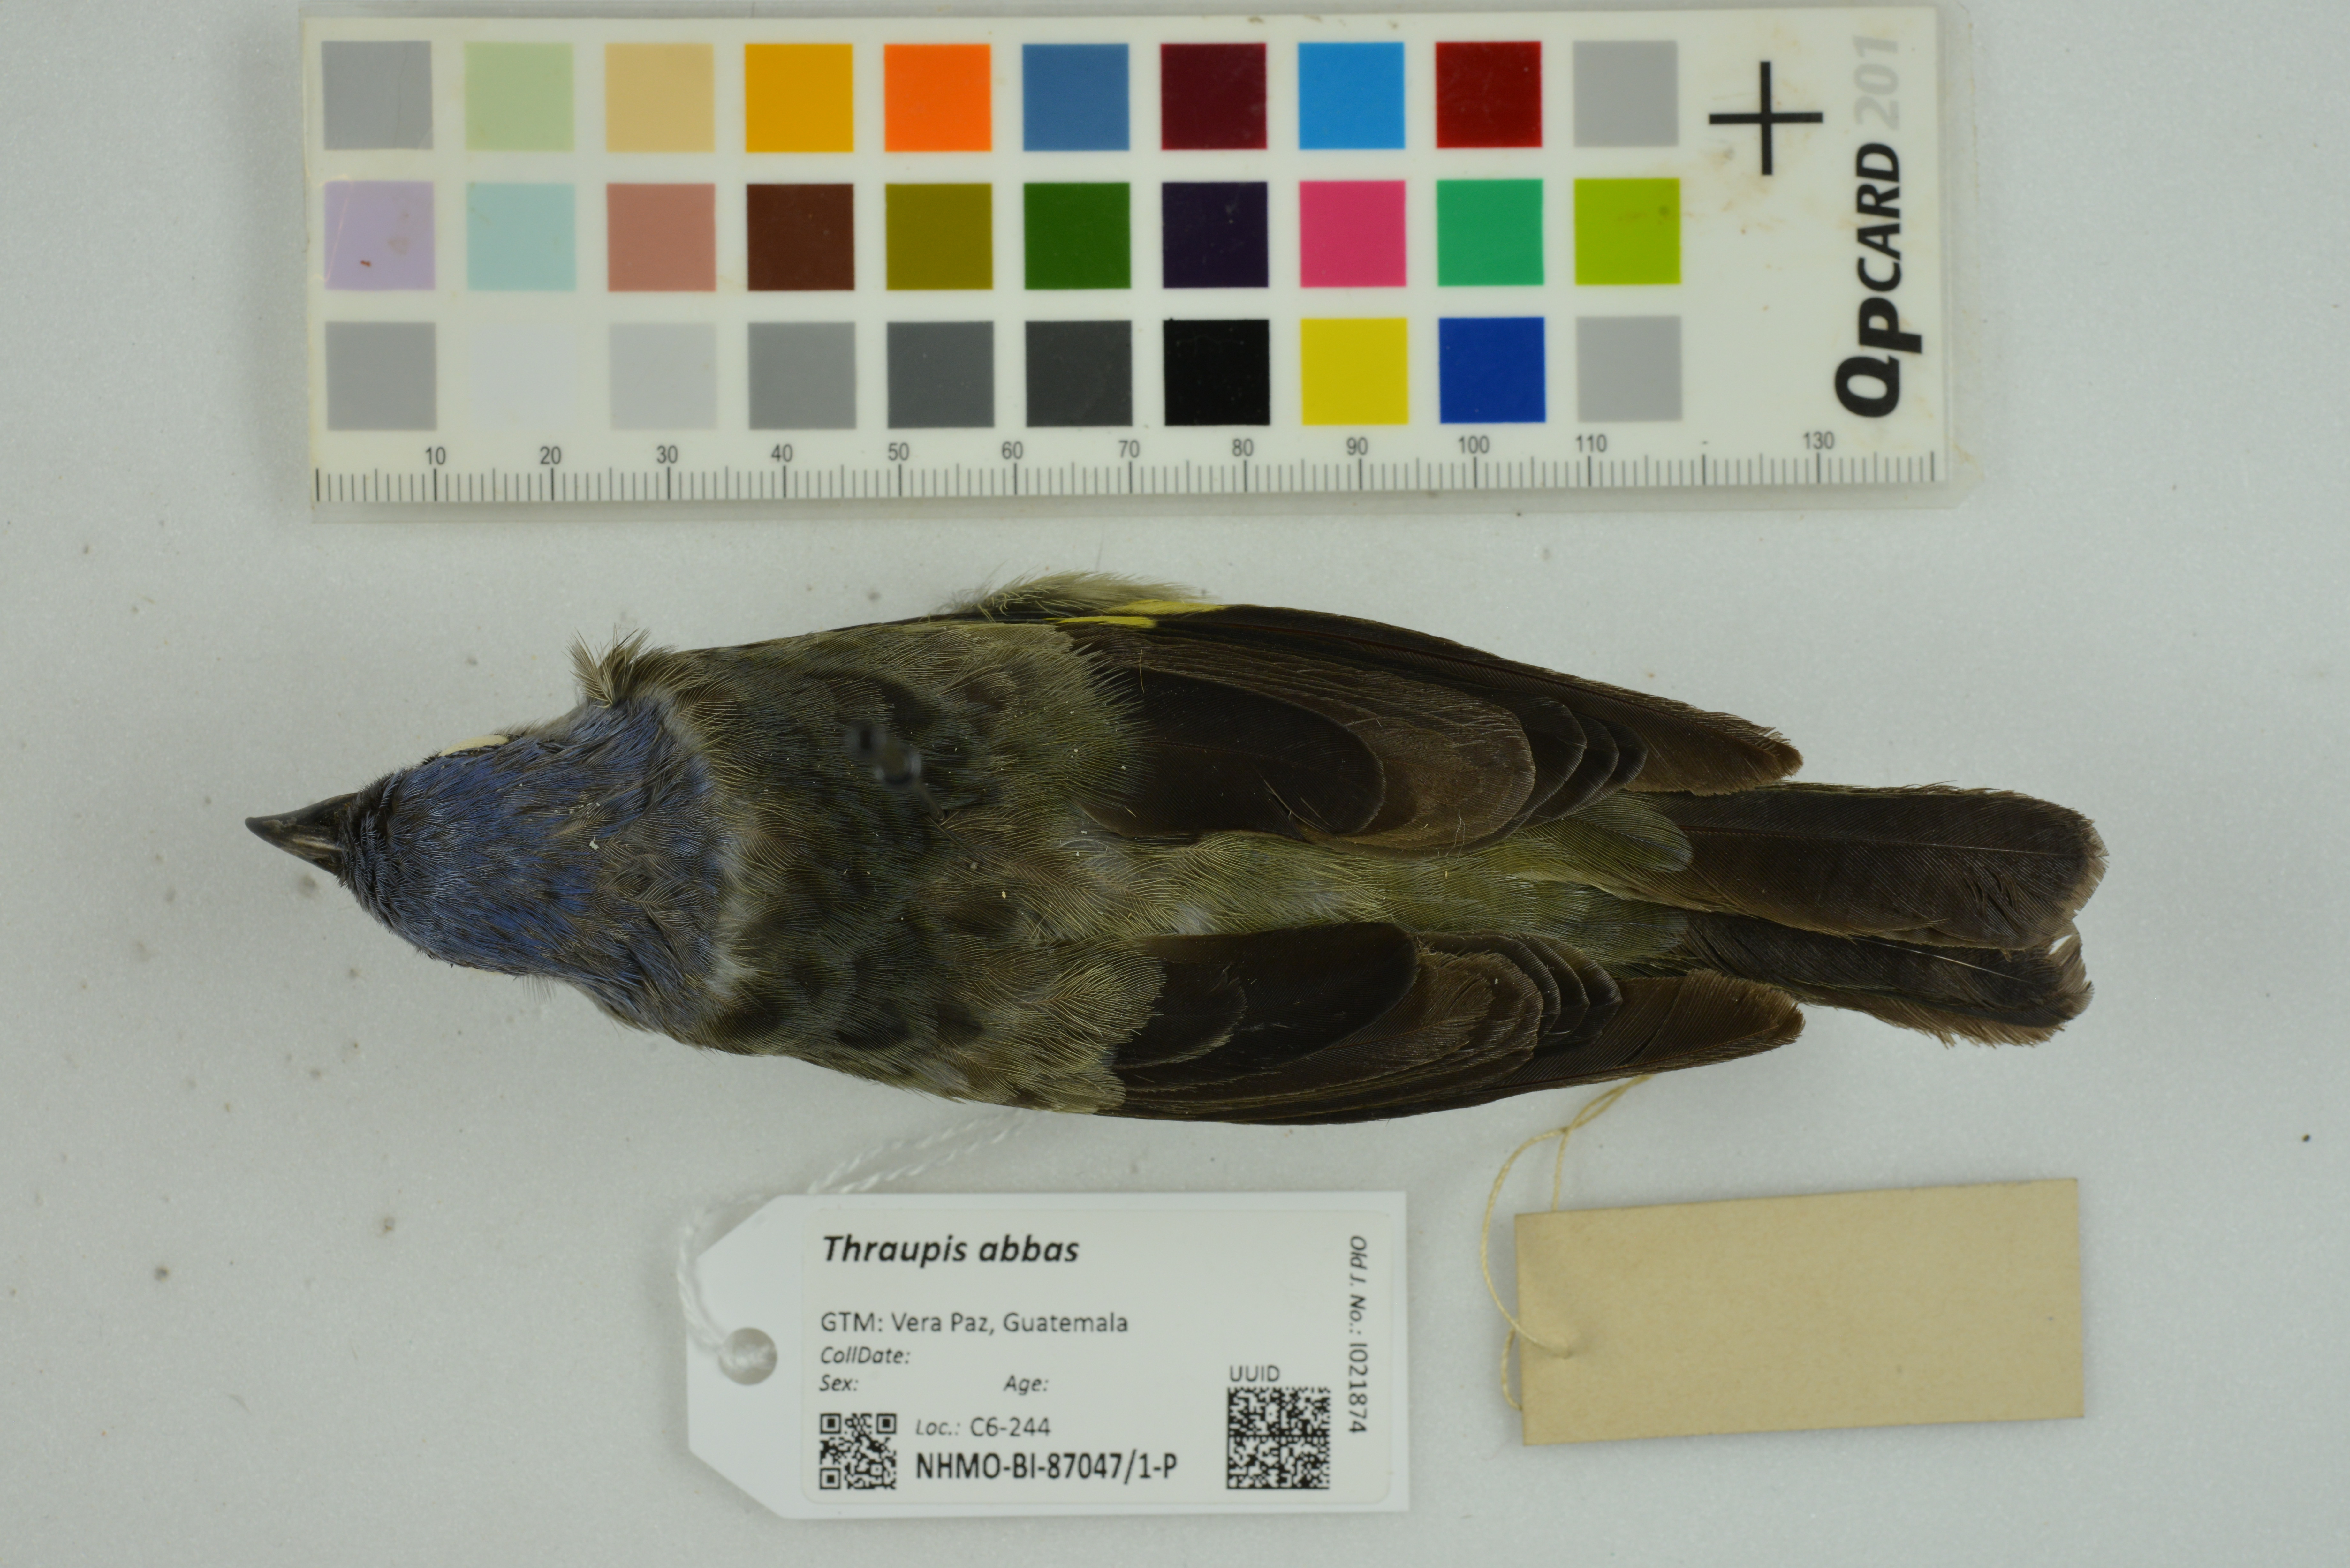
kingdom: Animalia
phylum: Chordata
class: Aves
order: Passeriformes
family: Thraupidae
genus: Thraupis
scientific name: Thraupis abbas
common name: Yellow-winged tanager
